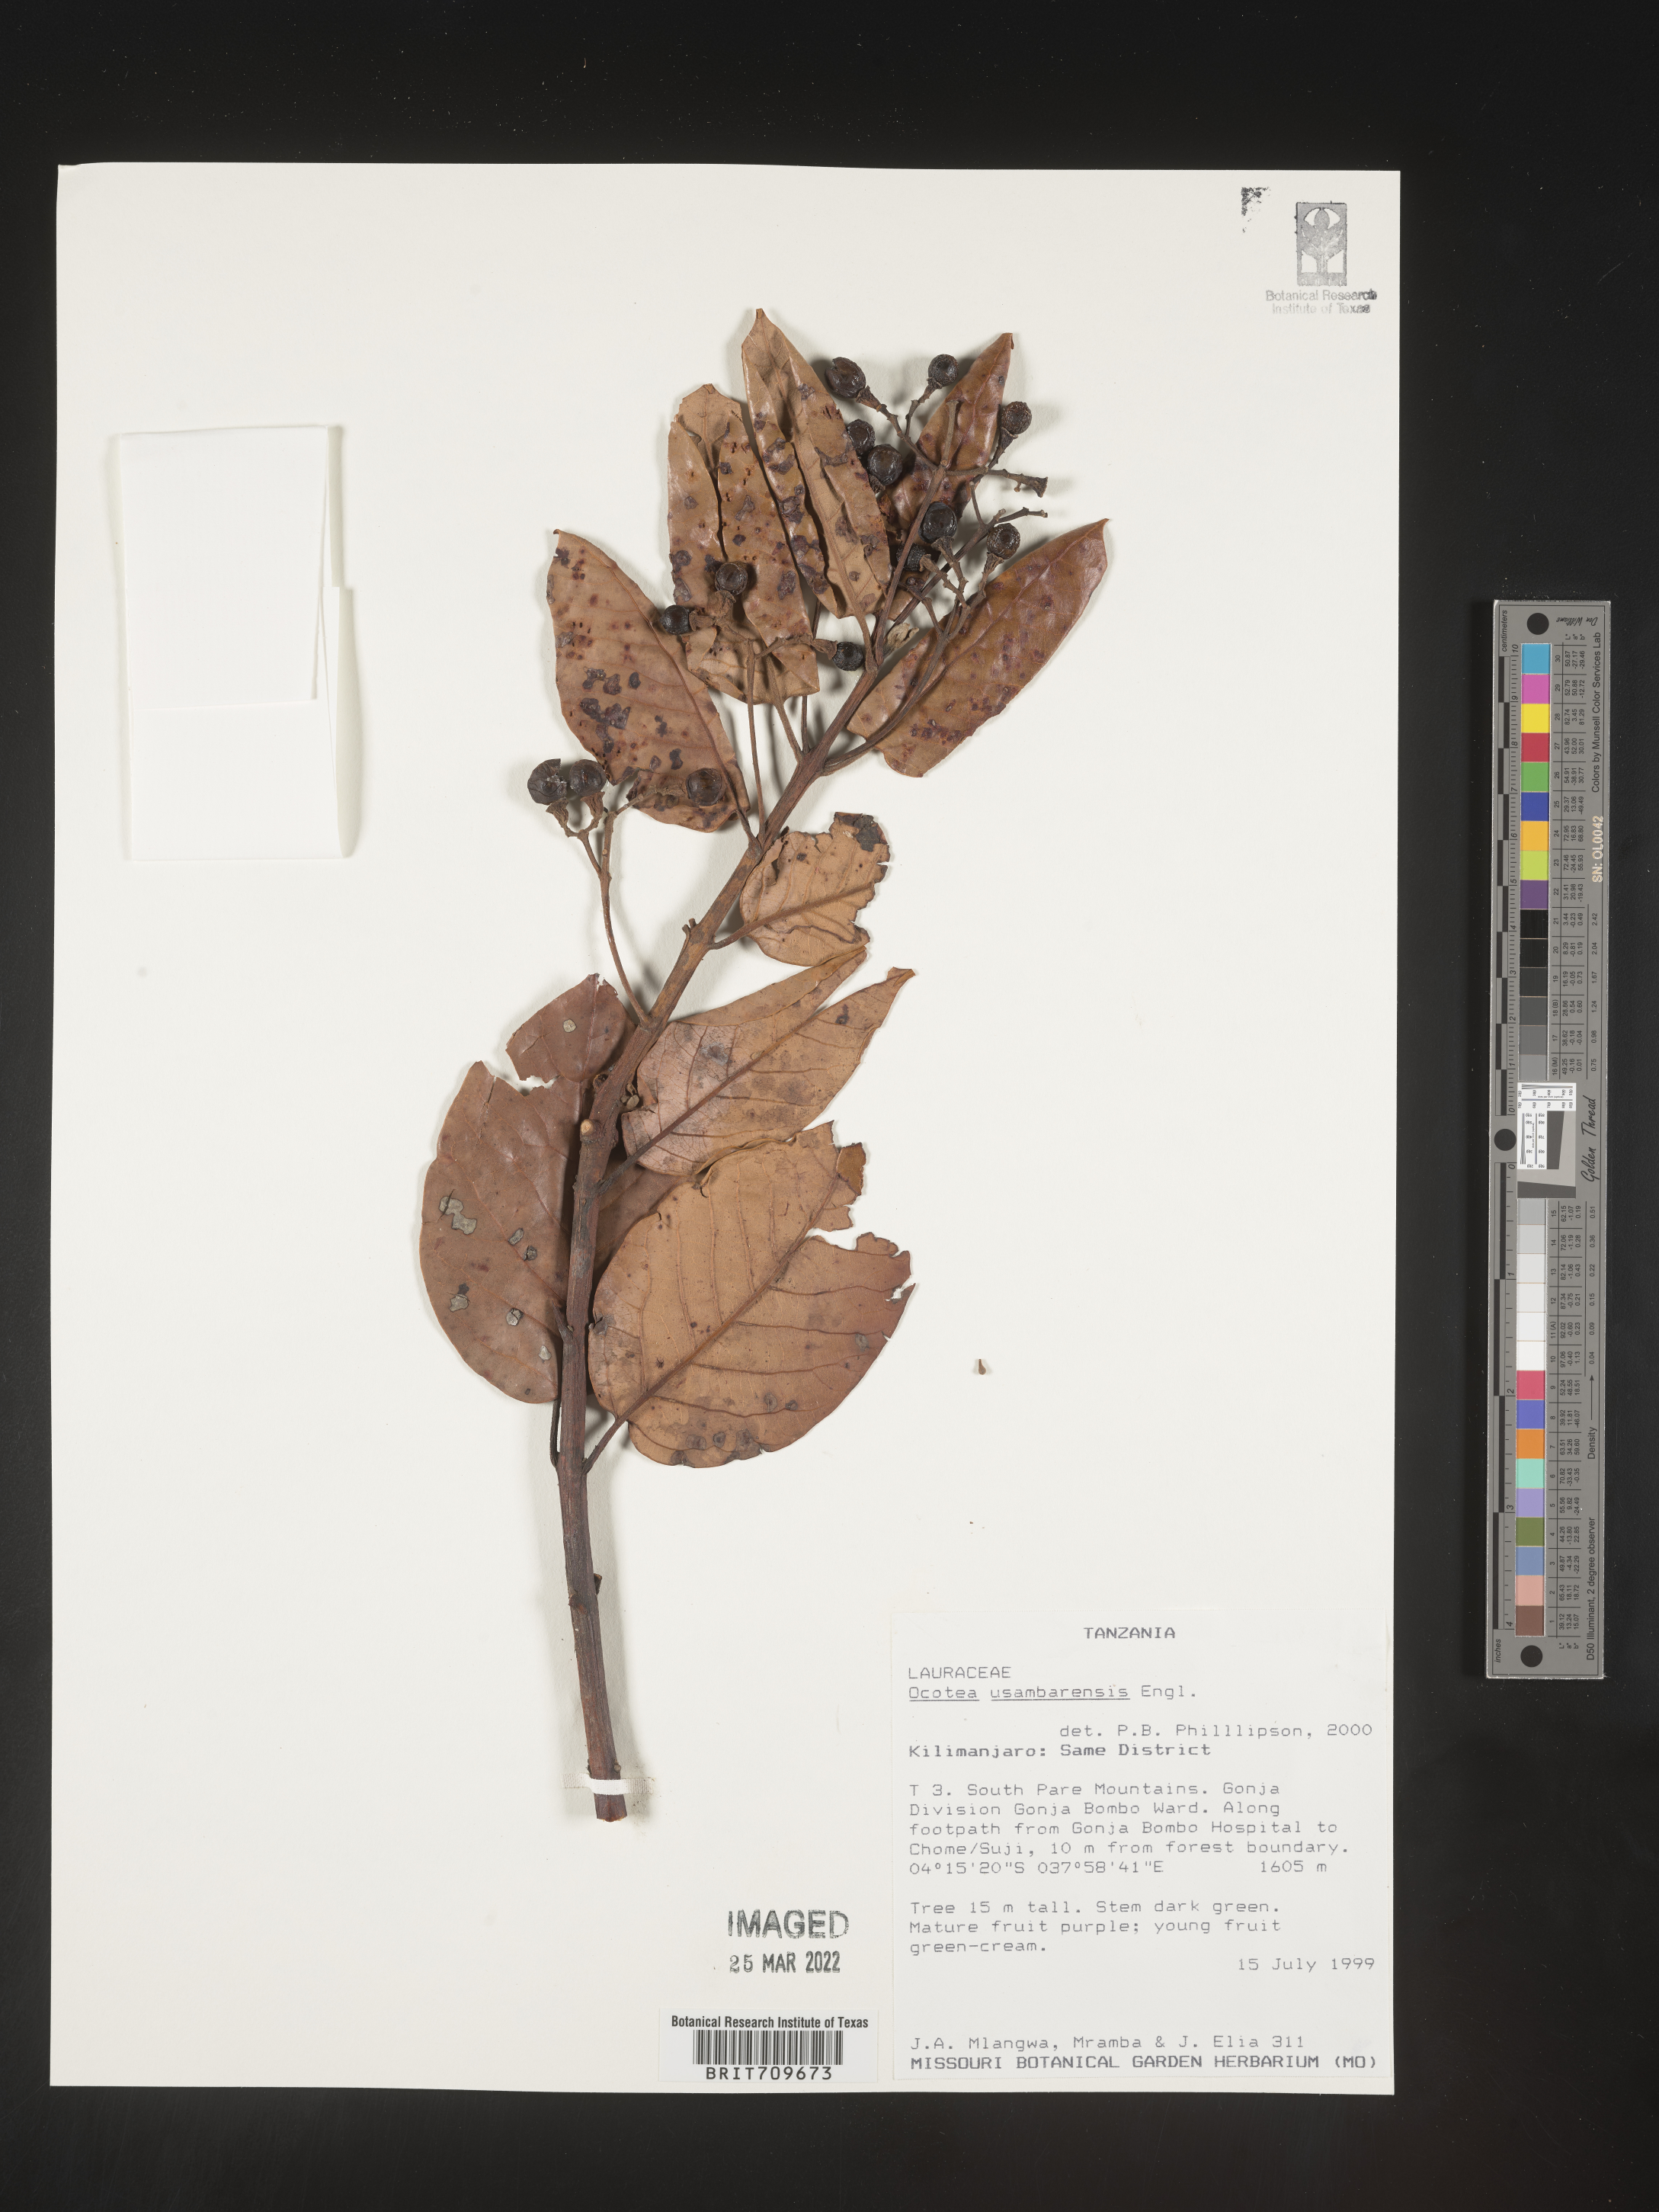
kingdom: Plantae
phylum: Tracheophyta
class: Magnoliopsida
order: Laurales
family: Lauraceae
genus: Ocotea
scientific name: Ocotea
